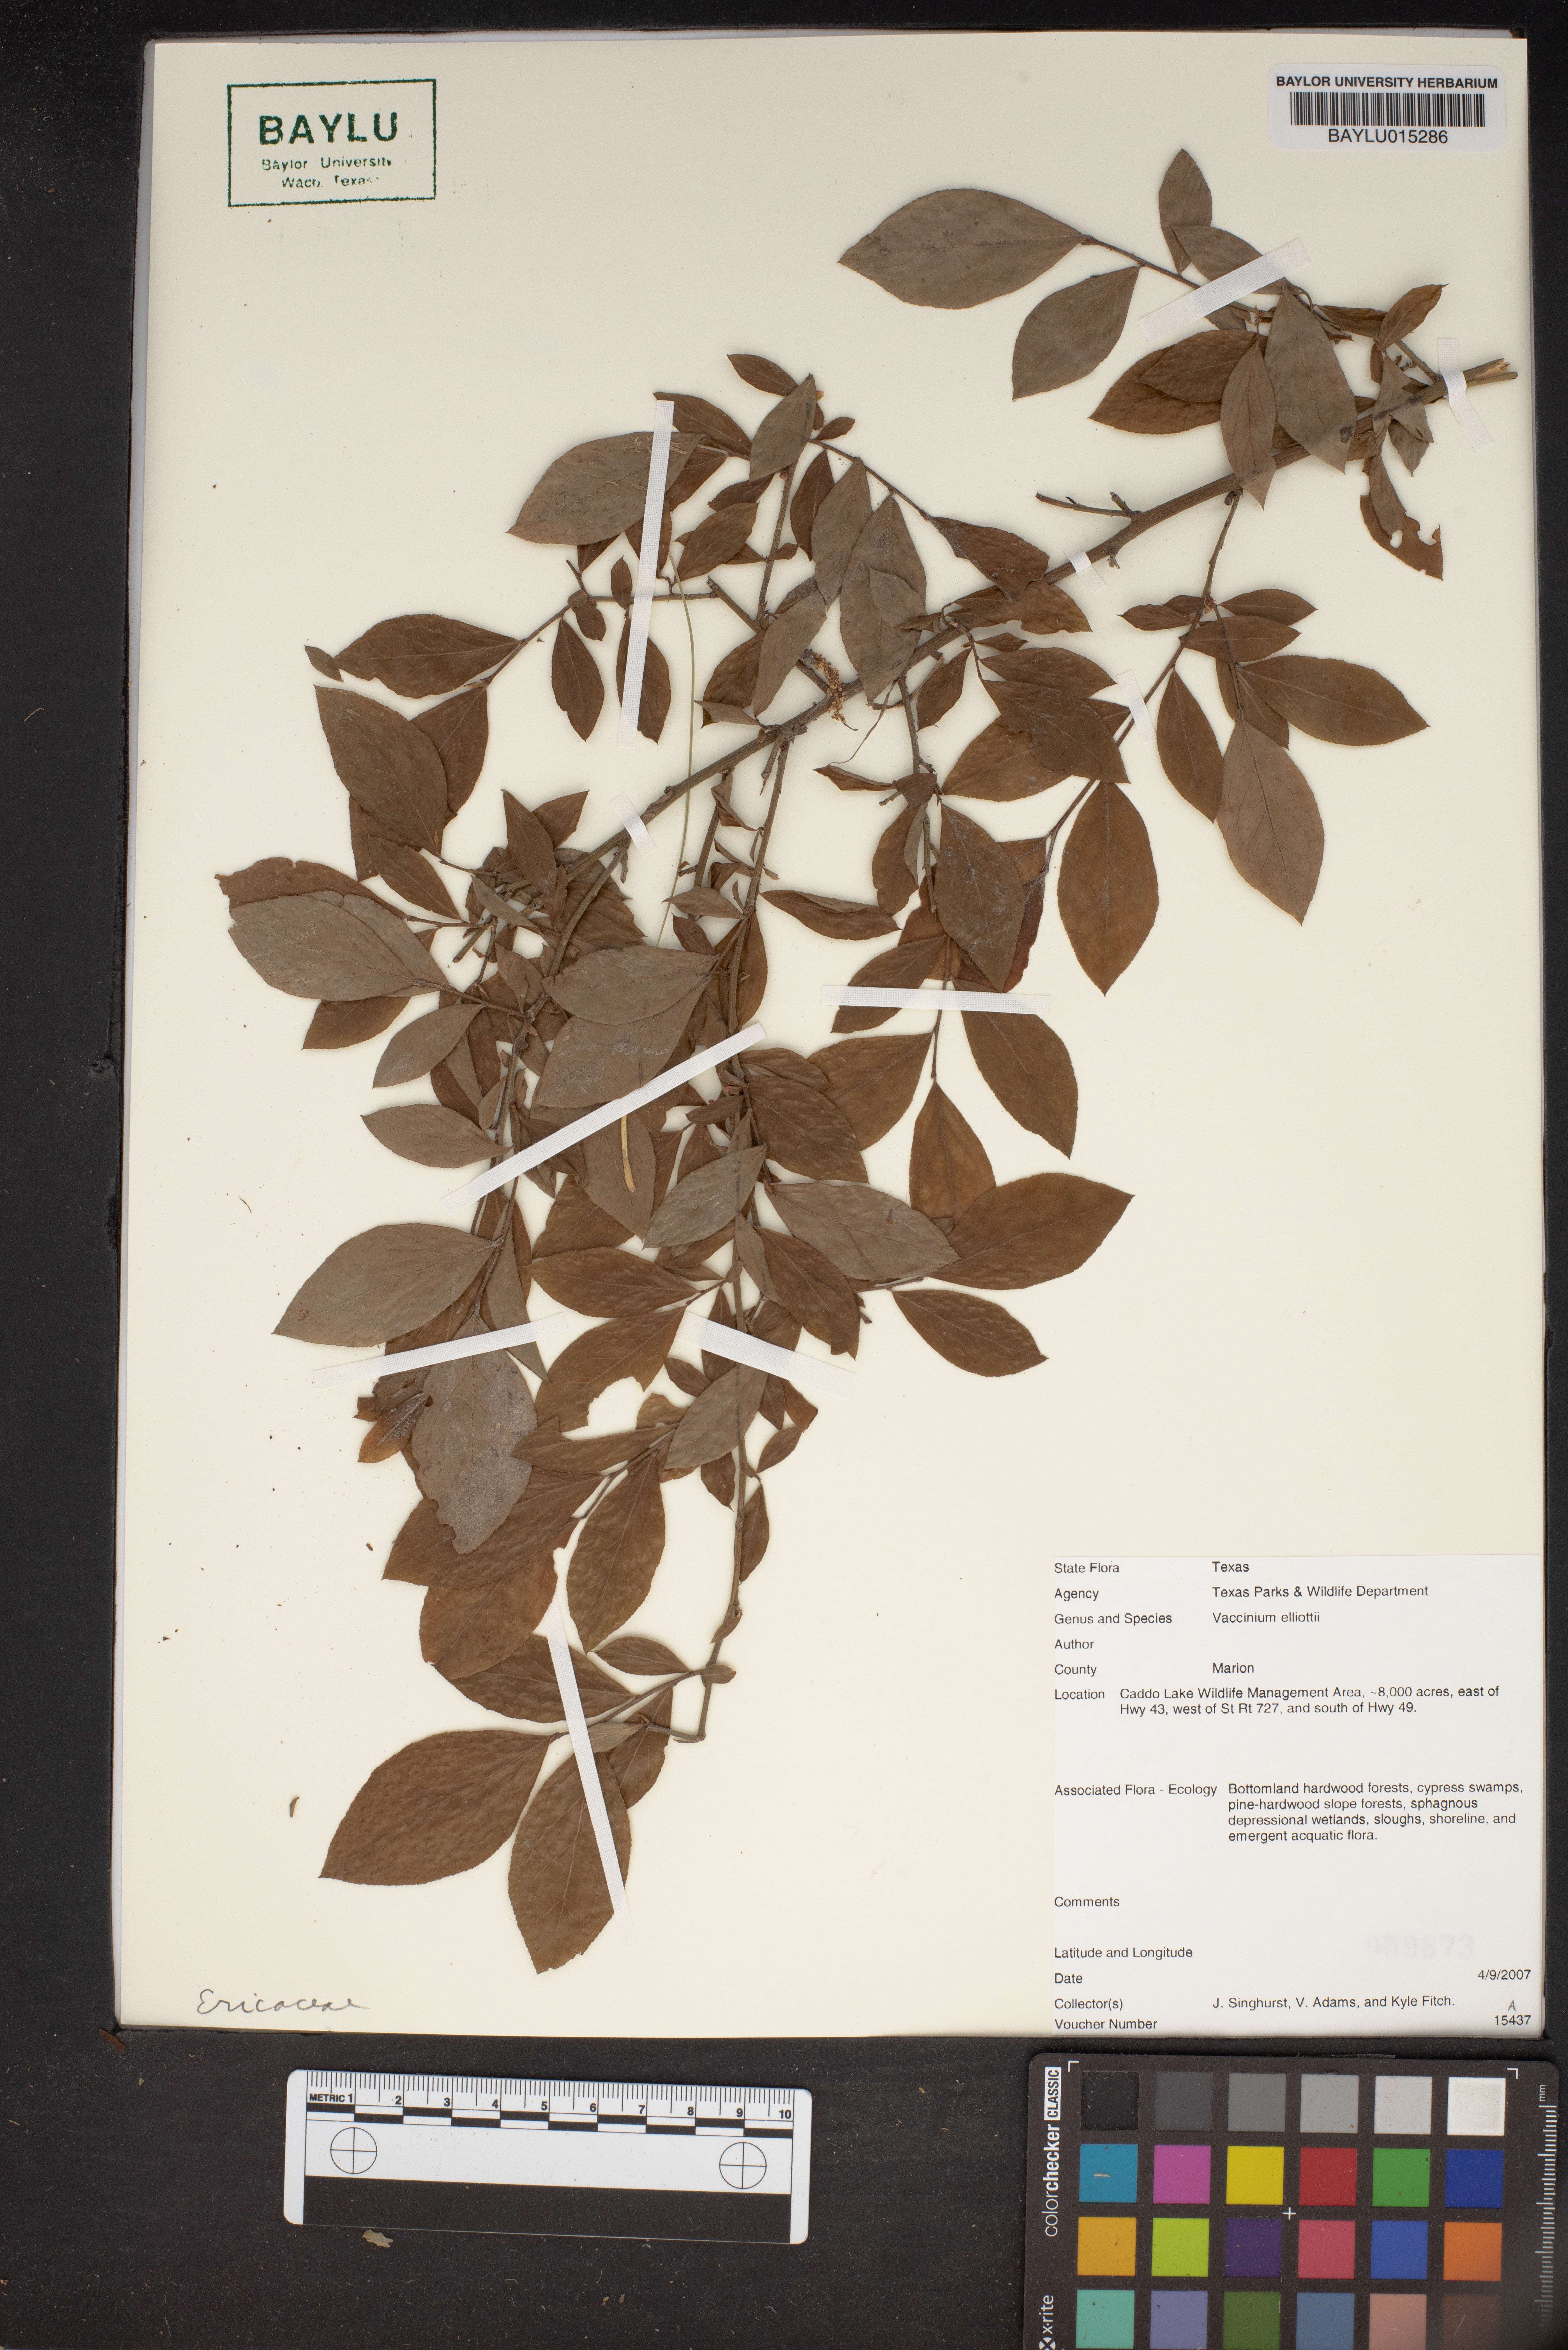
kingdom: Plantae
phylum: Tracheophyta
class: Magnoliopsida
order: Ericales
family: Ericaceae
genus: Vaccinium
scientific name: Vaccinium corymbosum
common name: Blueberry
